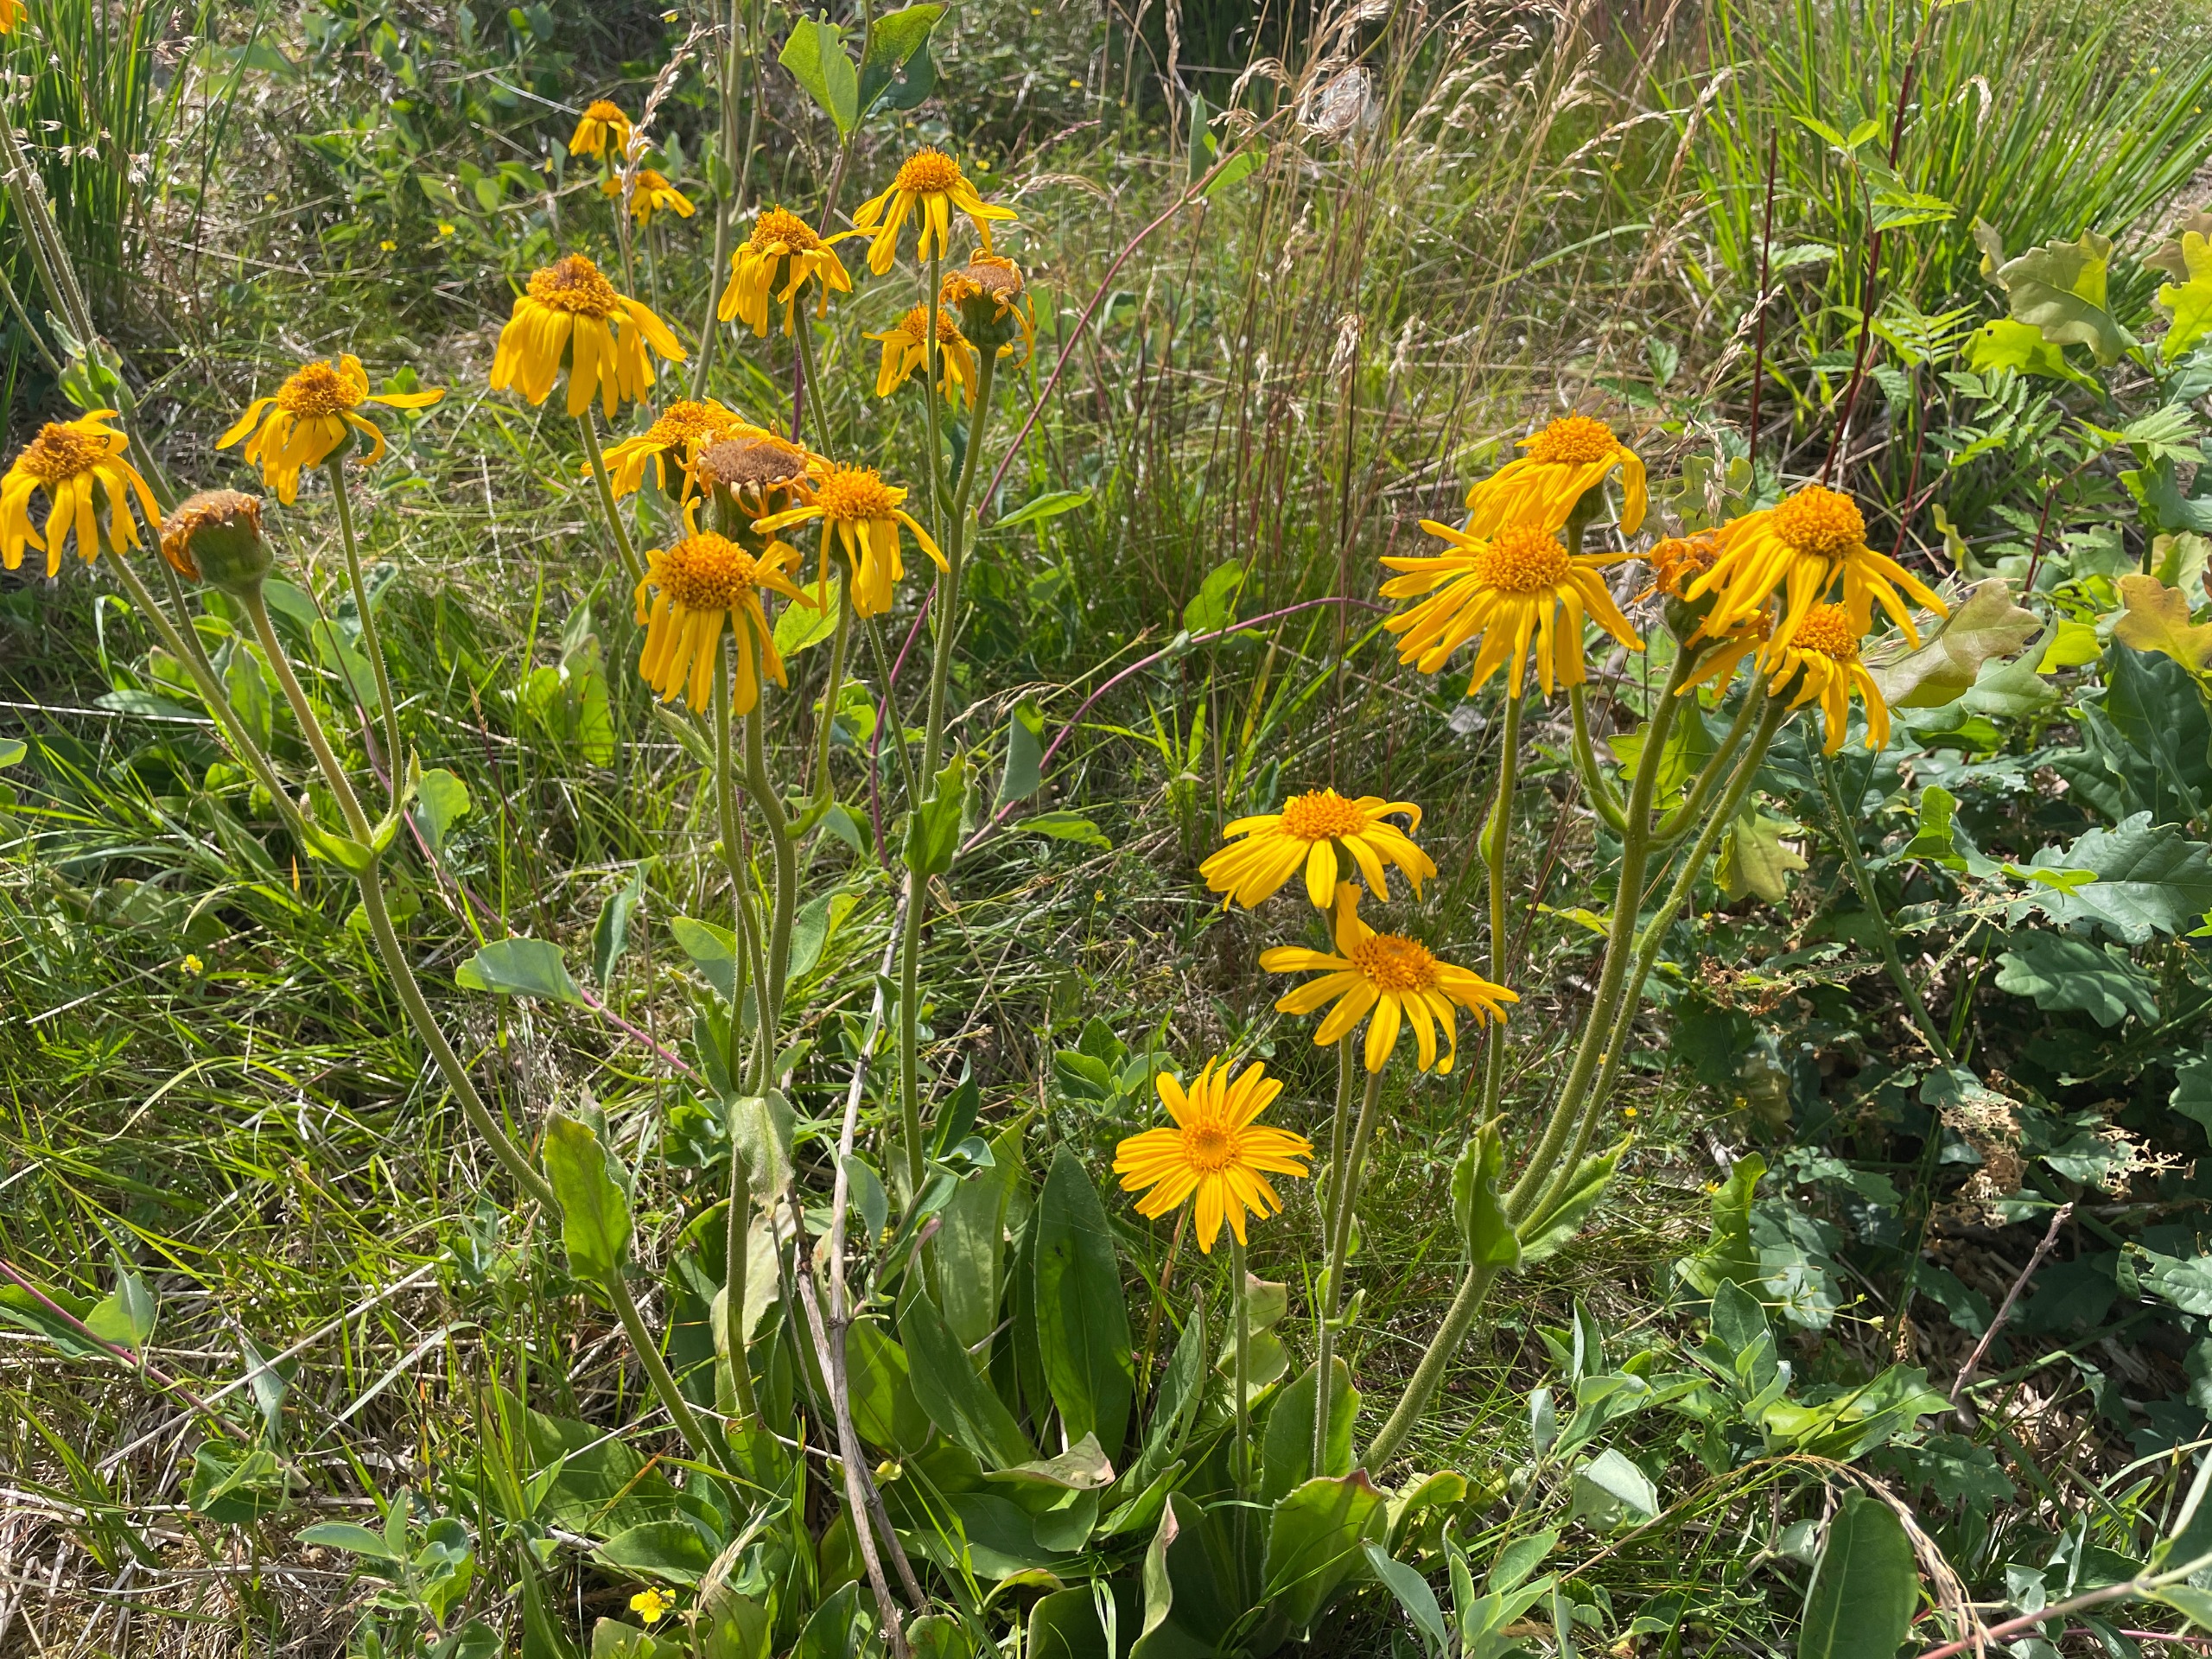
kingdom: Plantae
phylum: Tracheophyta
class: Magnoliopsida
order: Asterales
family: Asteraceae
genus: Arnica
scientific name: Arnica montana
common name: Guldblomme
